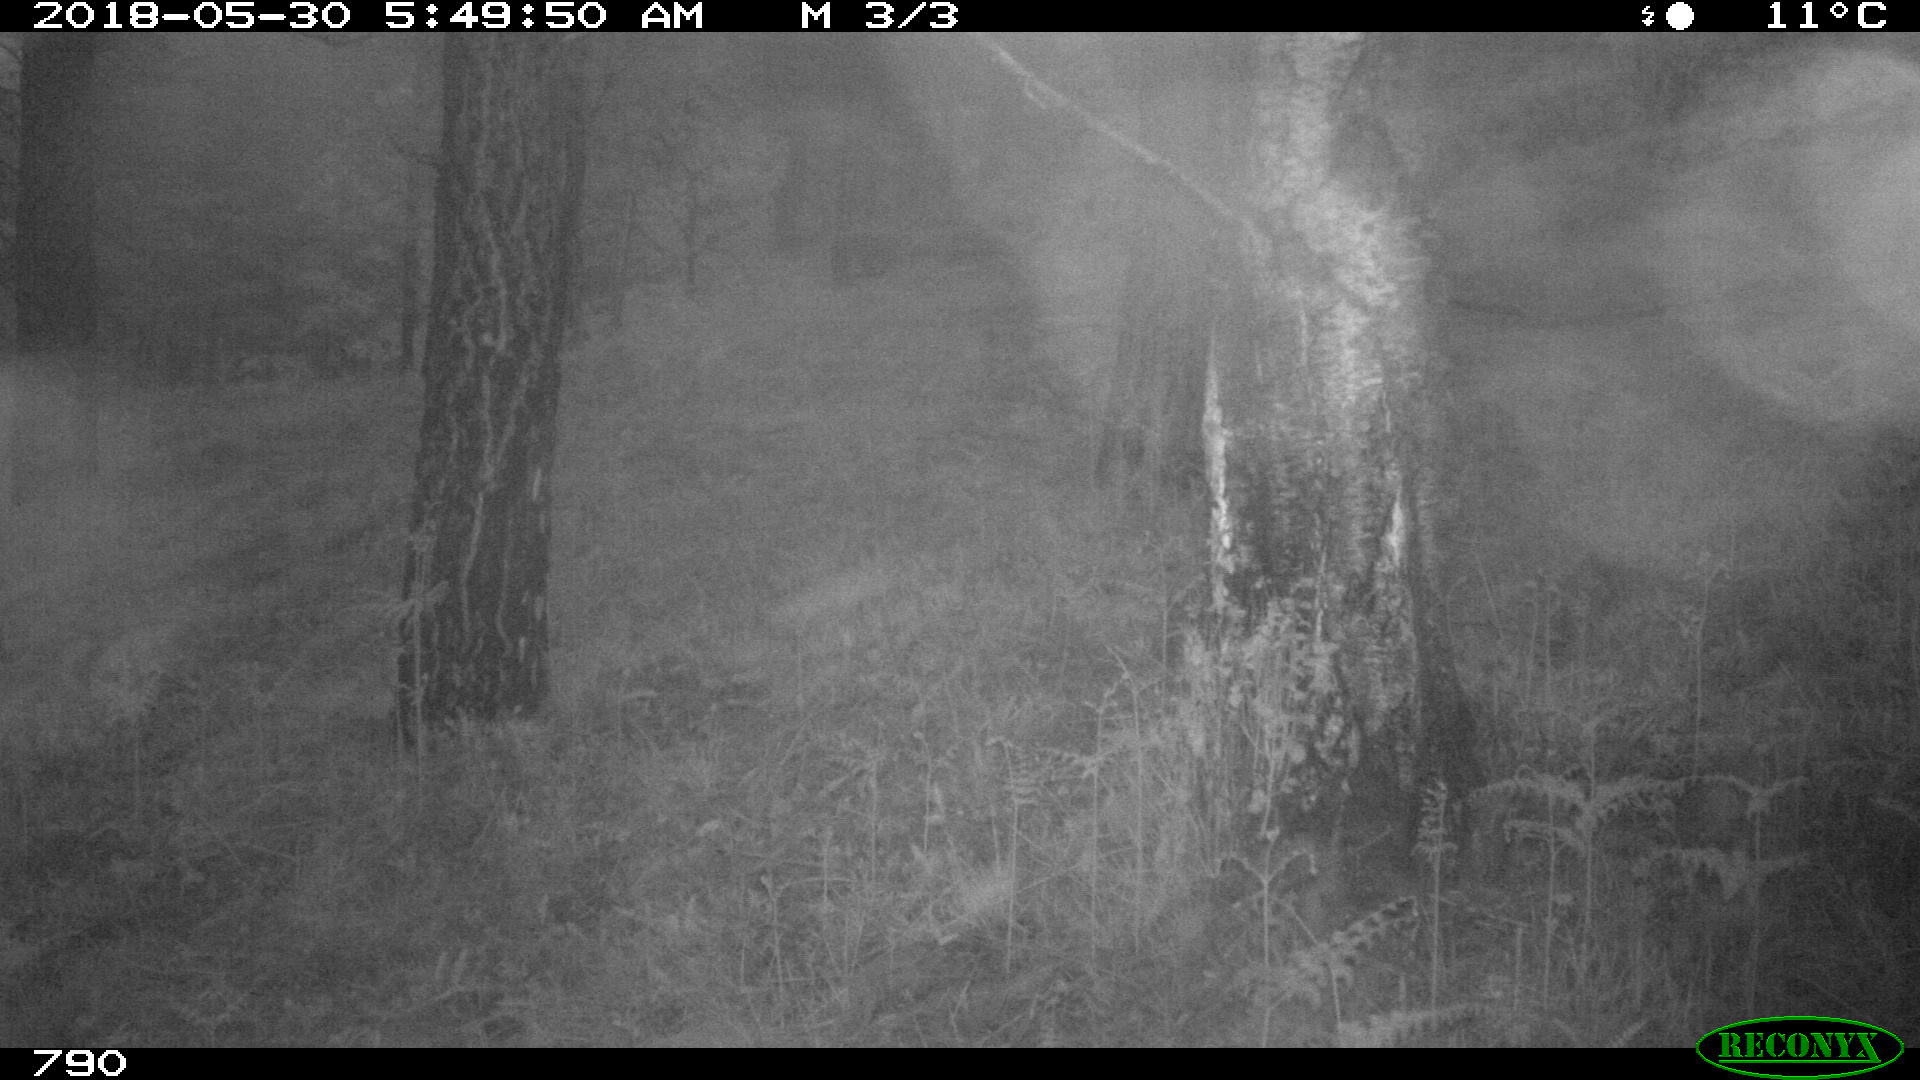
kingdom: Animalia
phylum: Chordata
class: Mammalia
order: Perissodactyla
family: Equidae
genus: Equus
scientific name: Equus caballus
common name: Horse
